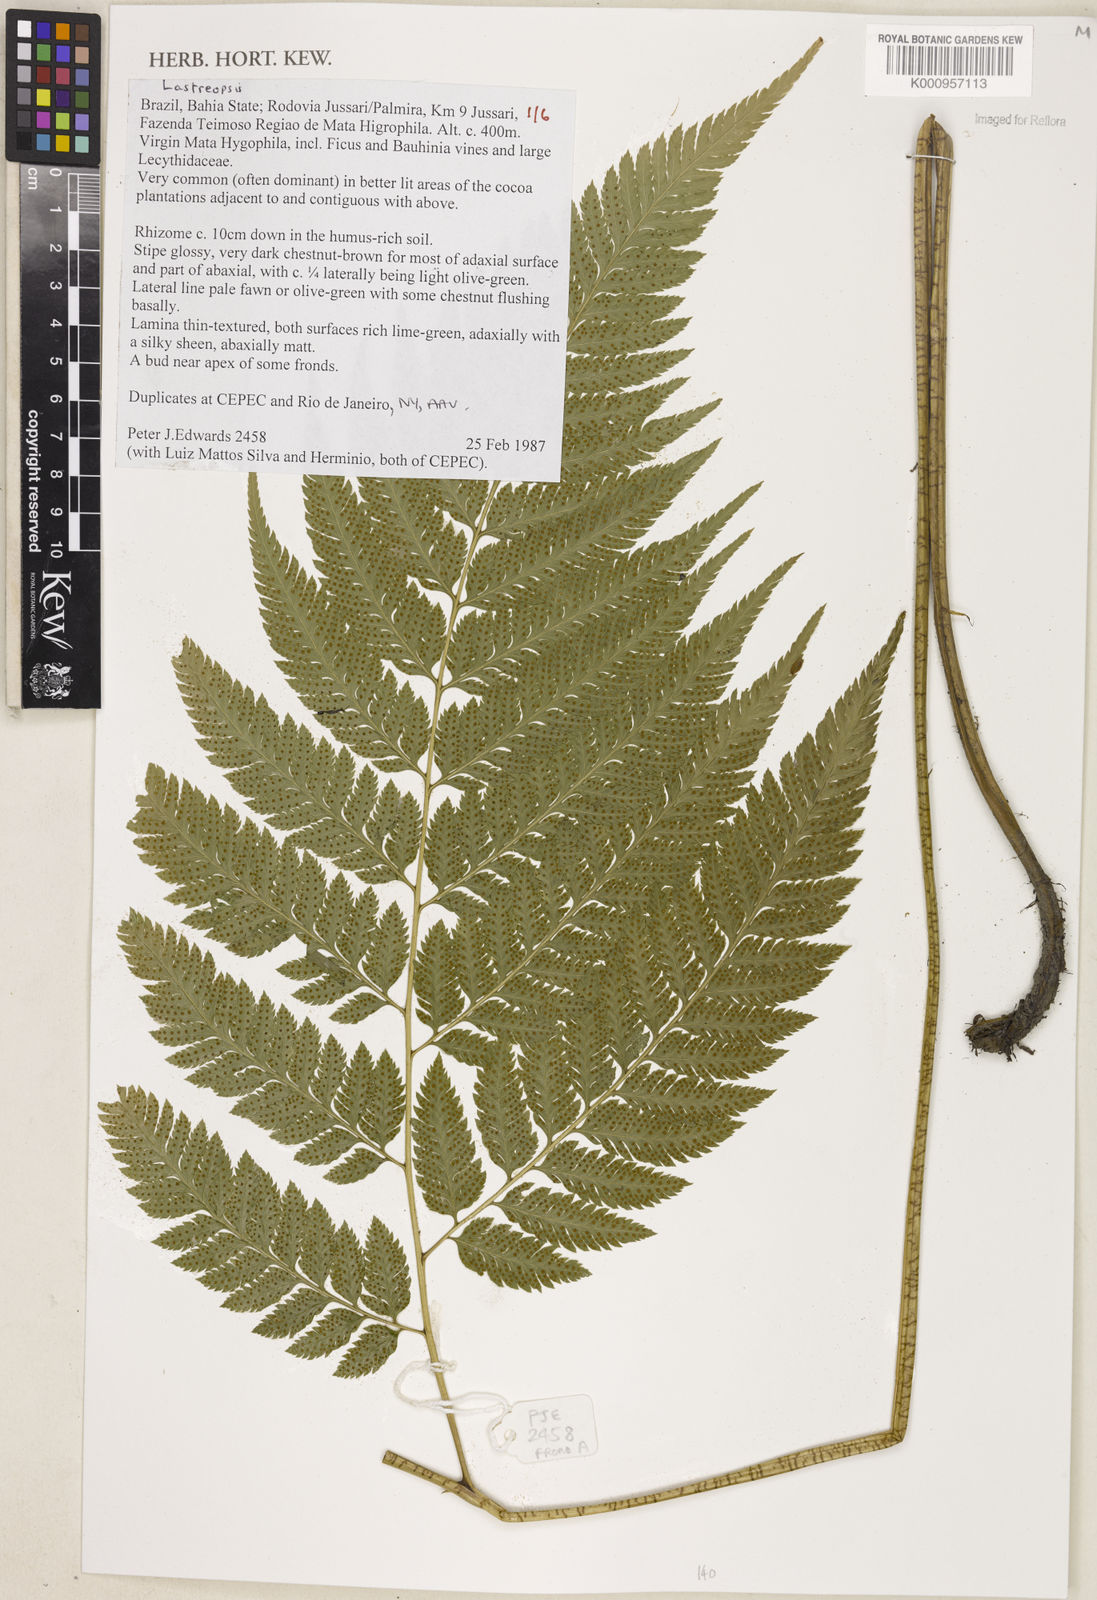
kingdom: Plantae
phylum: Tracheophyta
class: Polypodiopsida
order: Polypodiales
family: Dryopteridaceae
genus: Lastreopsis
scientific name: Lastreopsis
